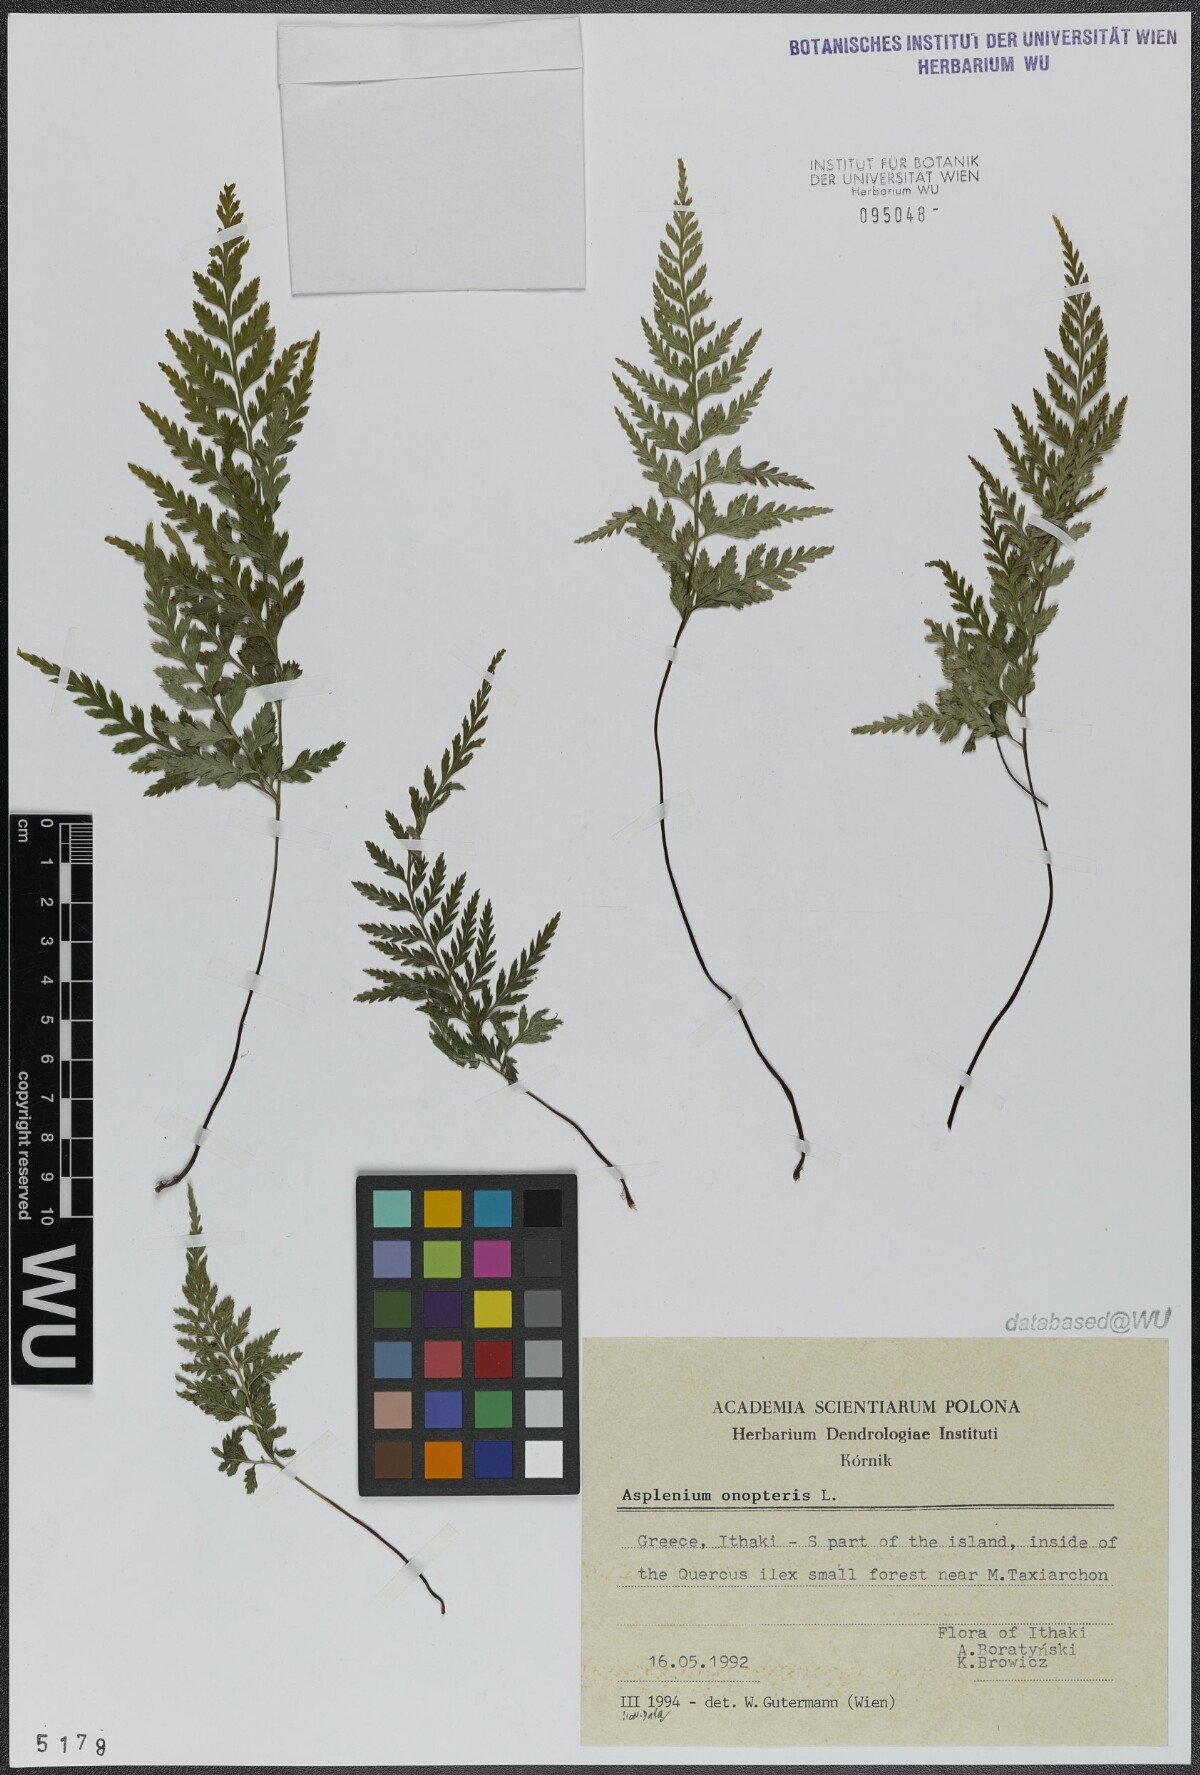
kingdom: Plantae
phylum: Tracheophyta
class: Polypodiopsida
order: Polypodiales
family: Aspleniaceae
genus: Asplenium
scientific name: Asplenium onopteris
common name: Irish spleenwort
